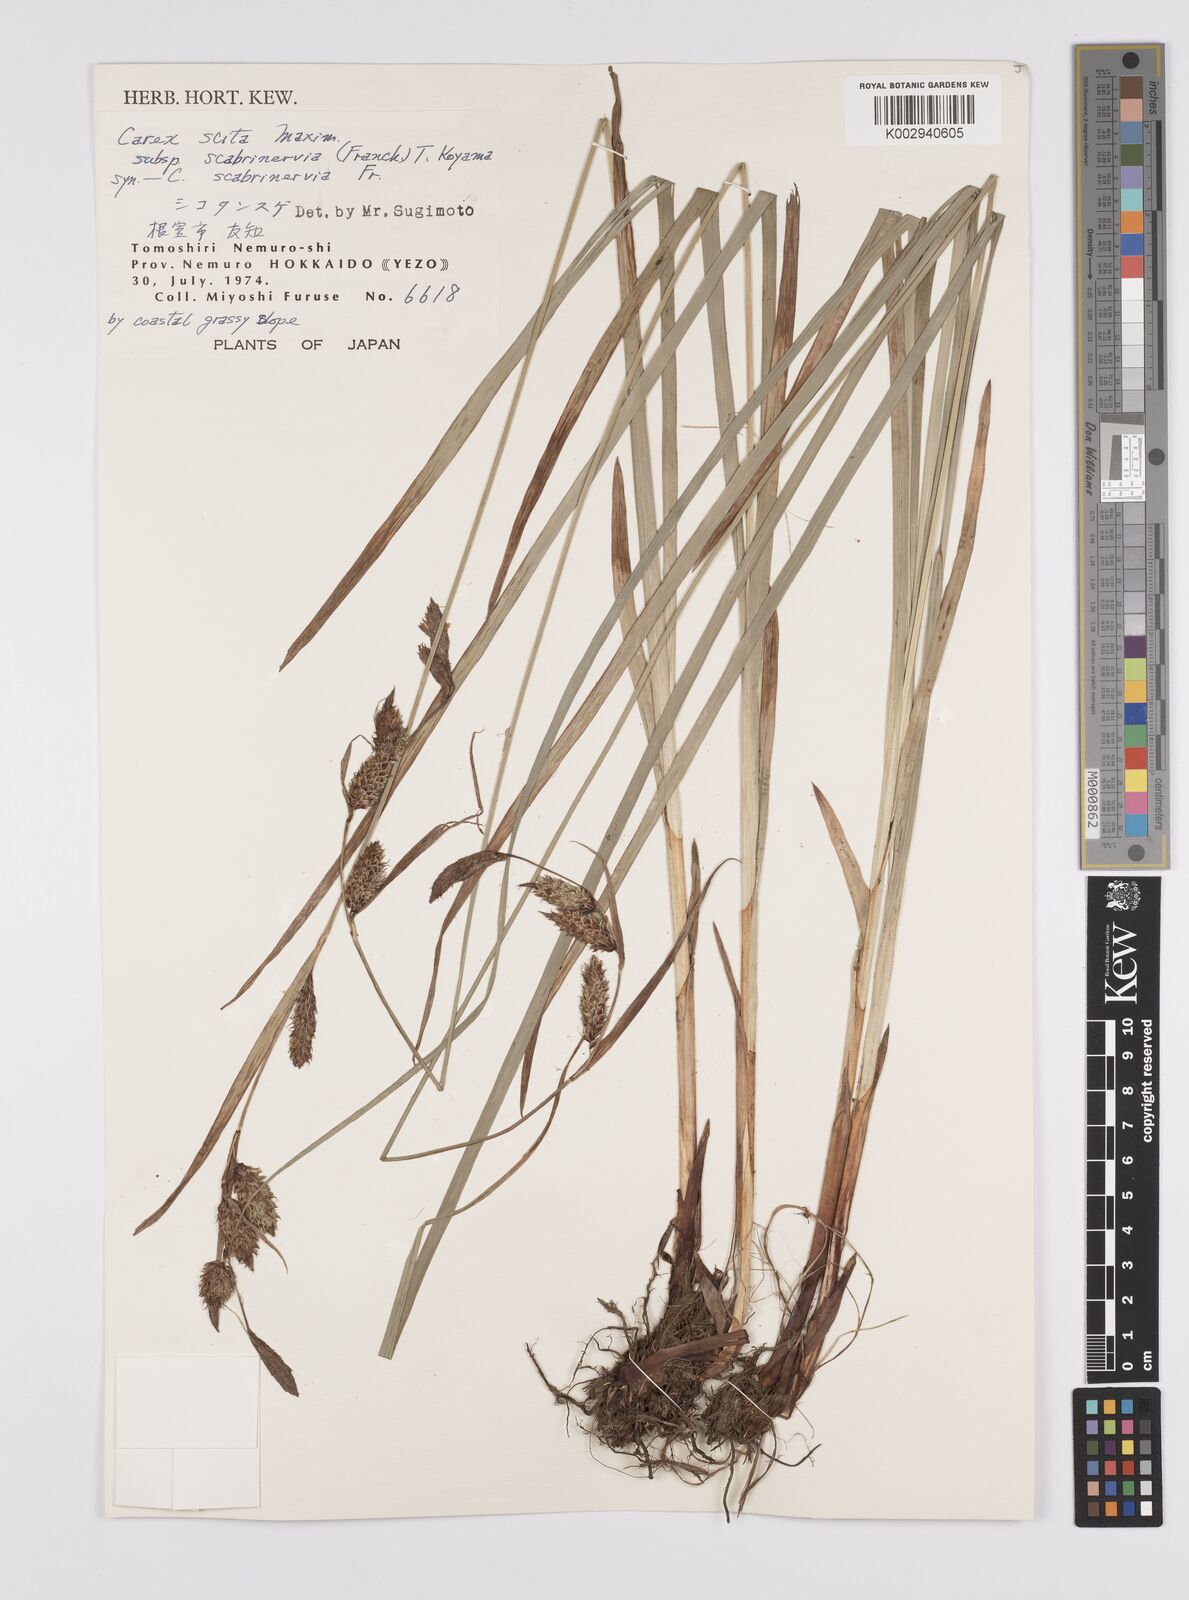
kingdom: Plantae
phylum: Tracheophyta
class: Liliopsida
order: Poales
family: Cyperaceae
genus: Carex
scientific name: Carex scita
